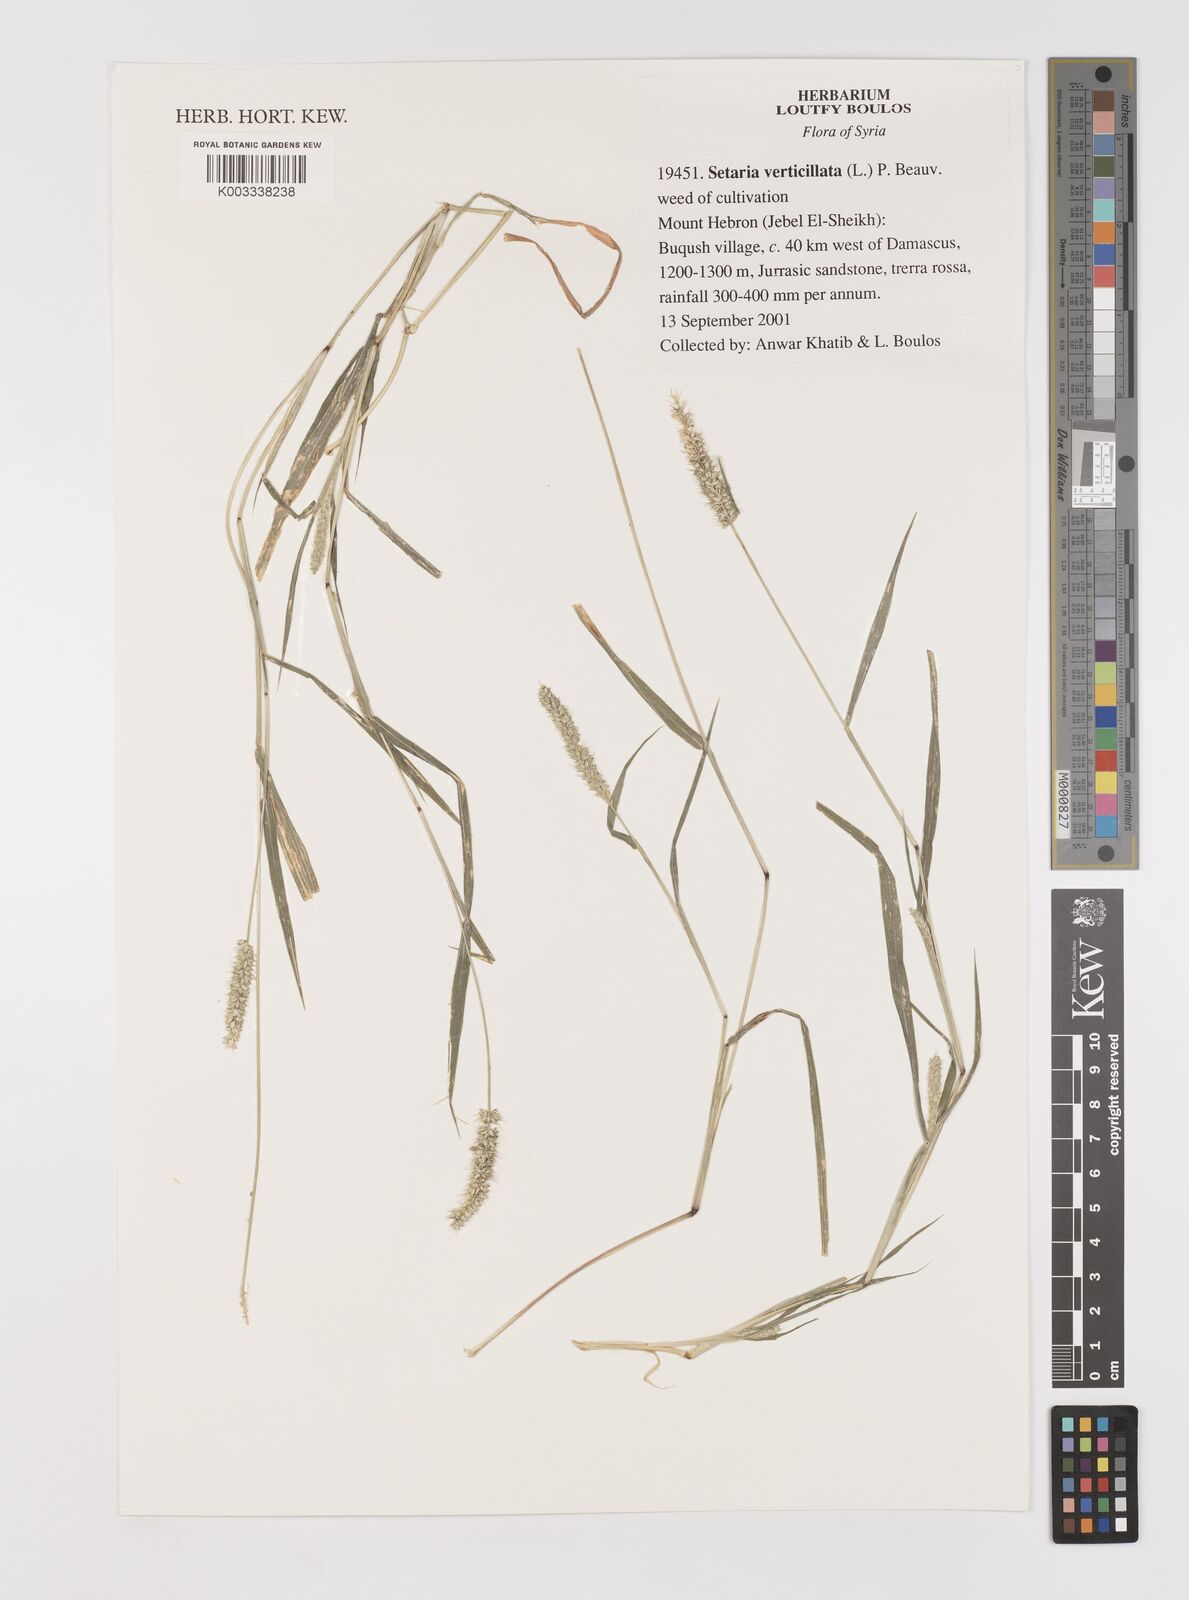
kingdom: Plantae
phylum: Tracheophyta
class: Liliopsida
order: Poales
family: Poaceae
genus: Setaria
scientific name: Setaria verticillata
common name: Hooked bristlegrass
